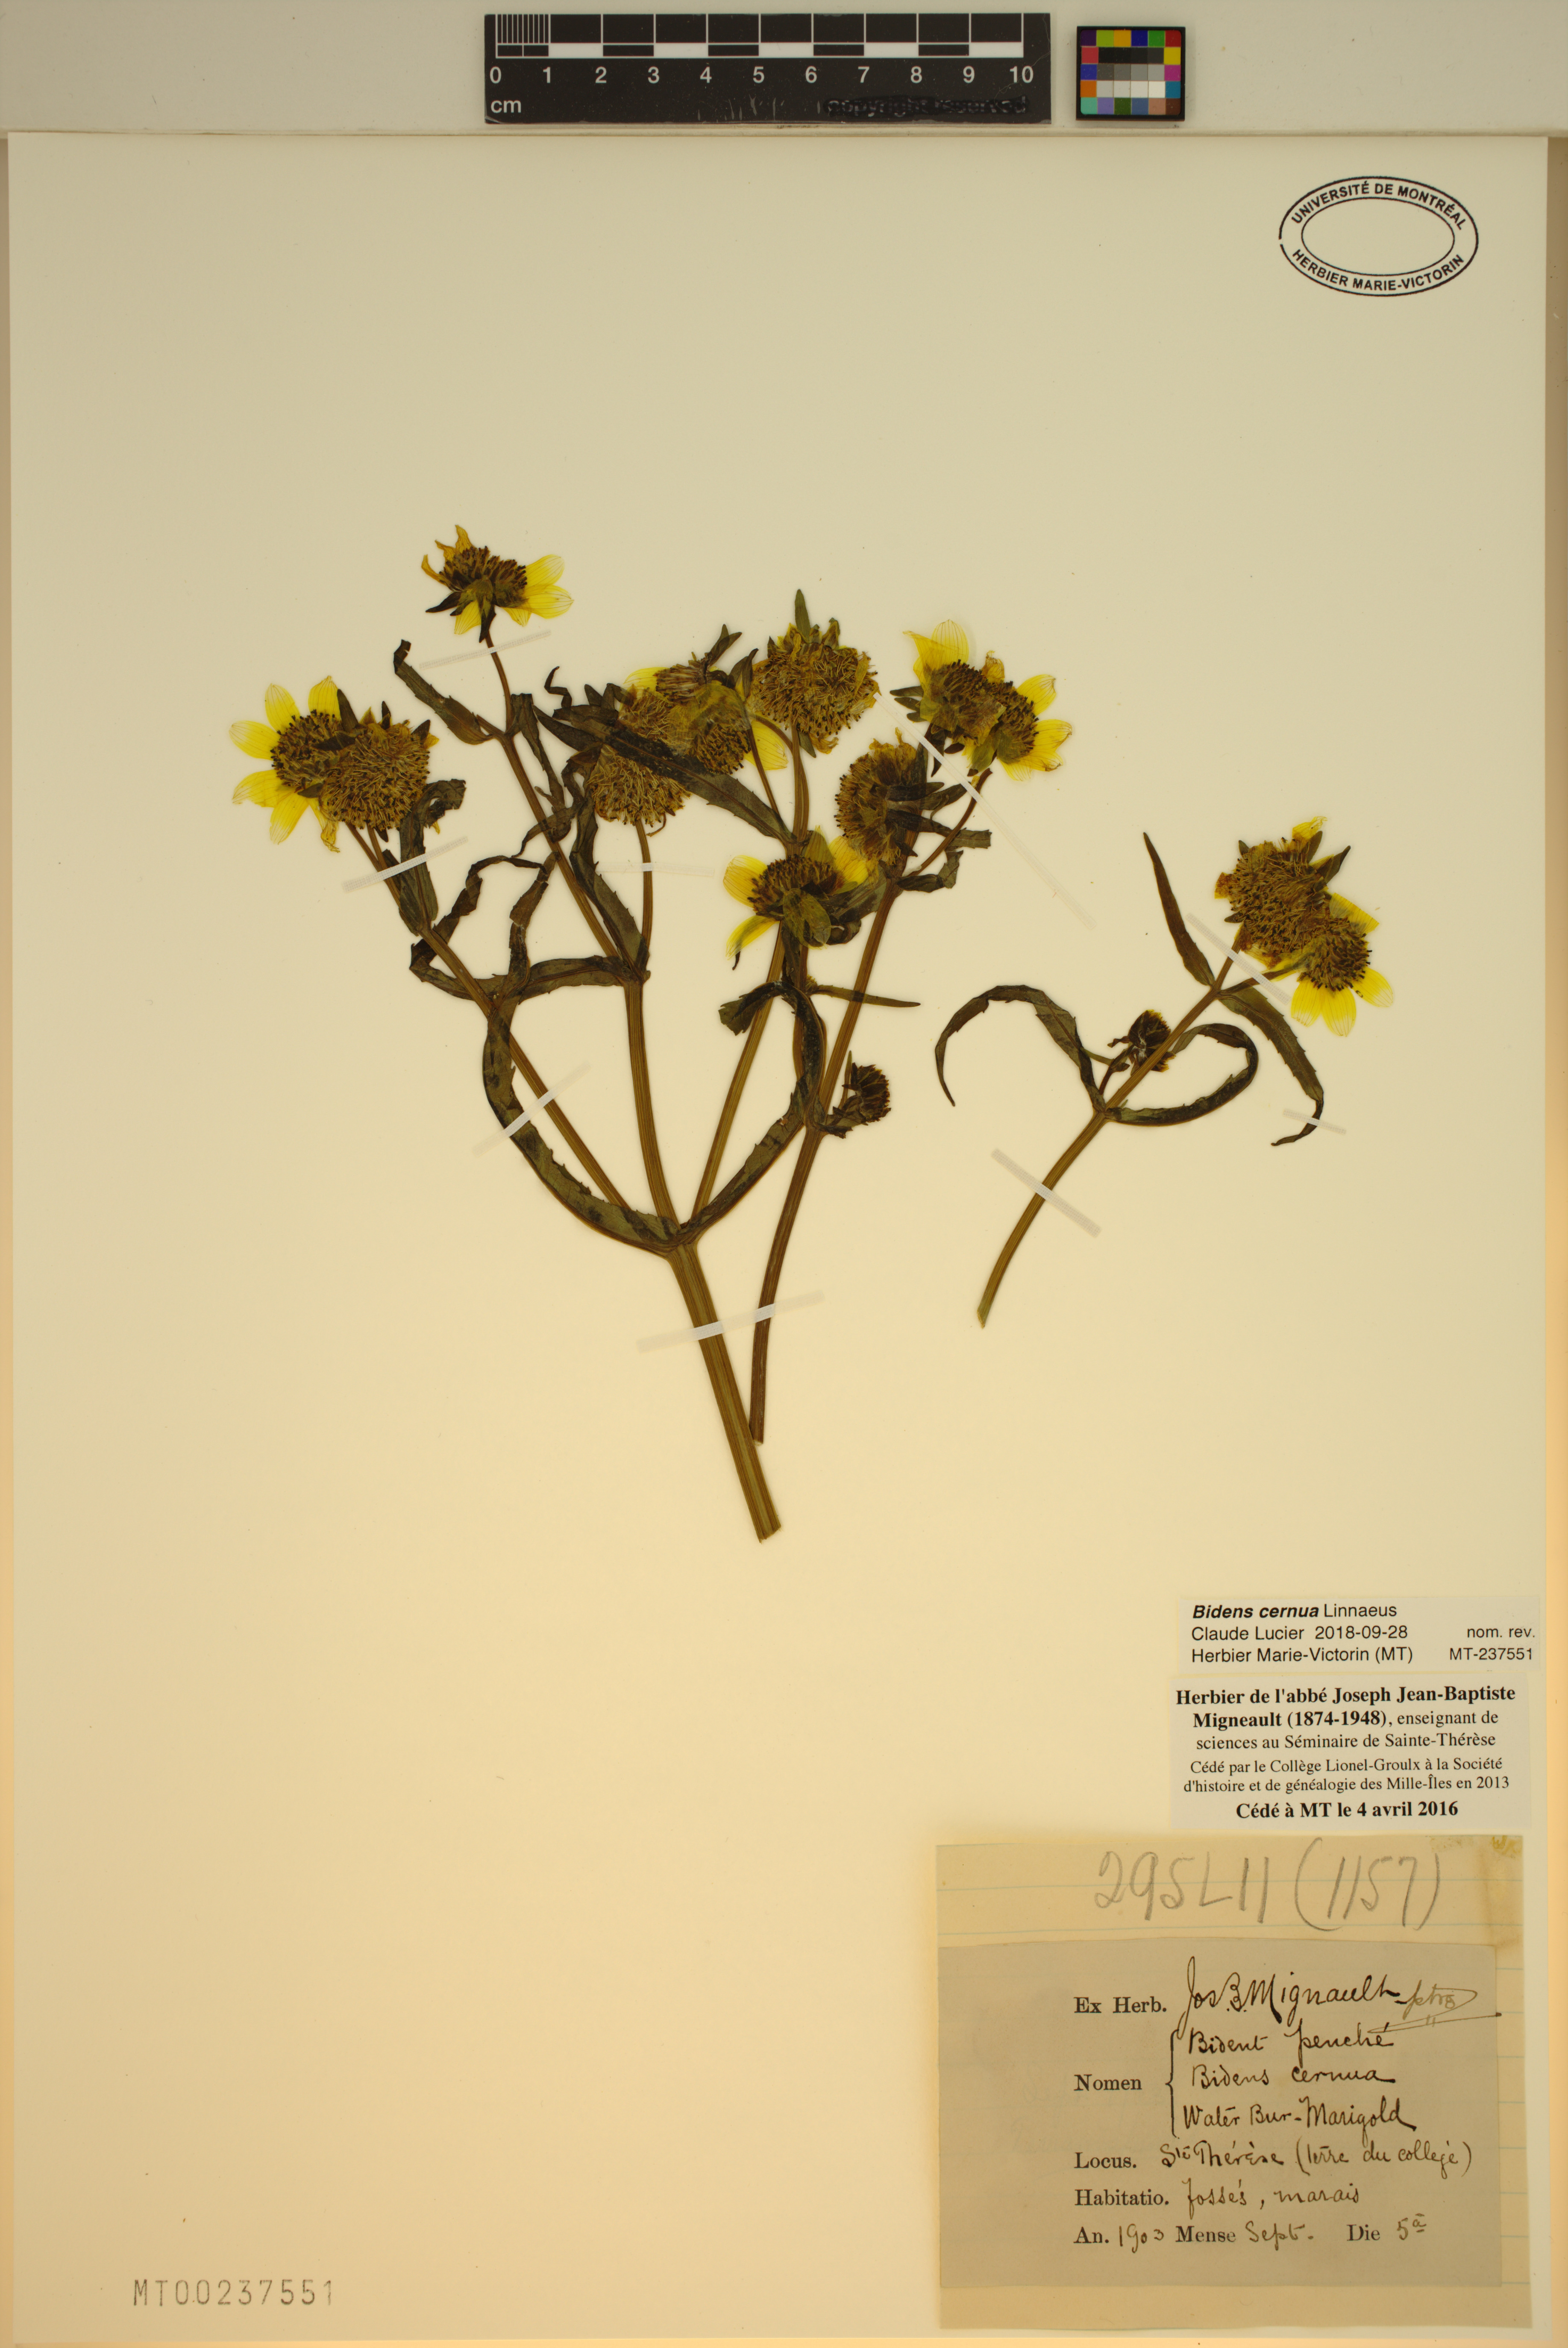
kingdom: Plantae
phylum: Tracheophyta
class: Magnoliopsida
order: Asterales
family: Asteraceae
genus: Bidens
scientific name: Bidens cernua
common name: Nodding bur-marigold
